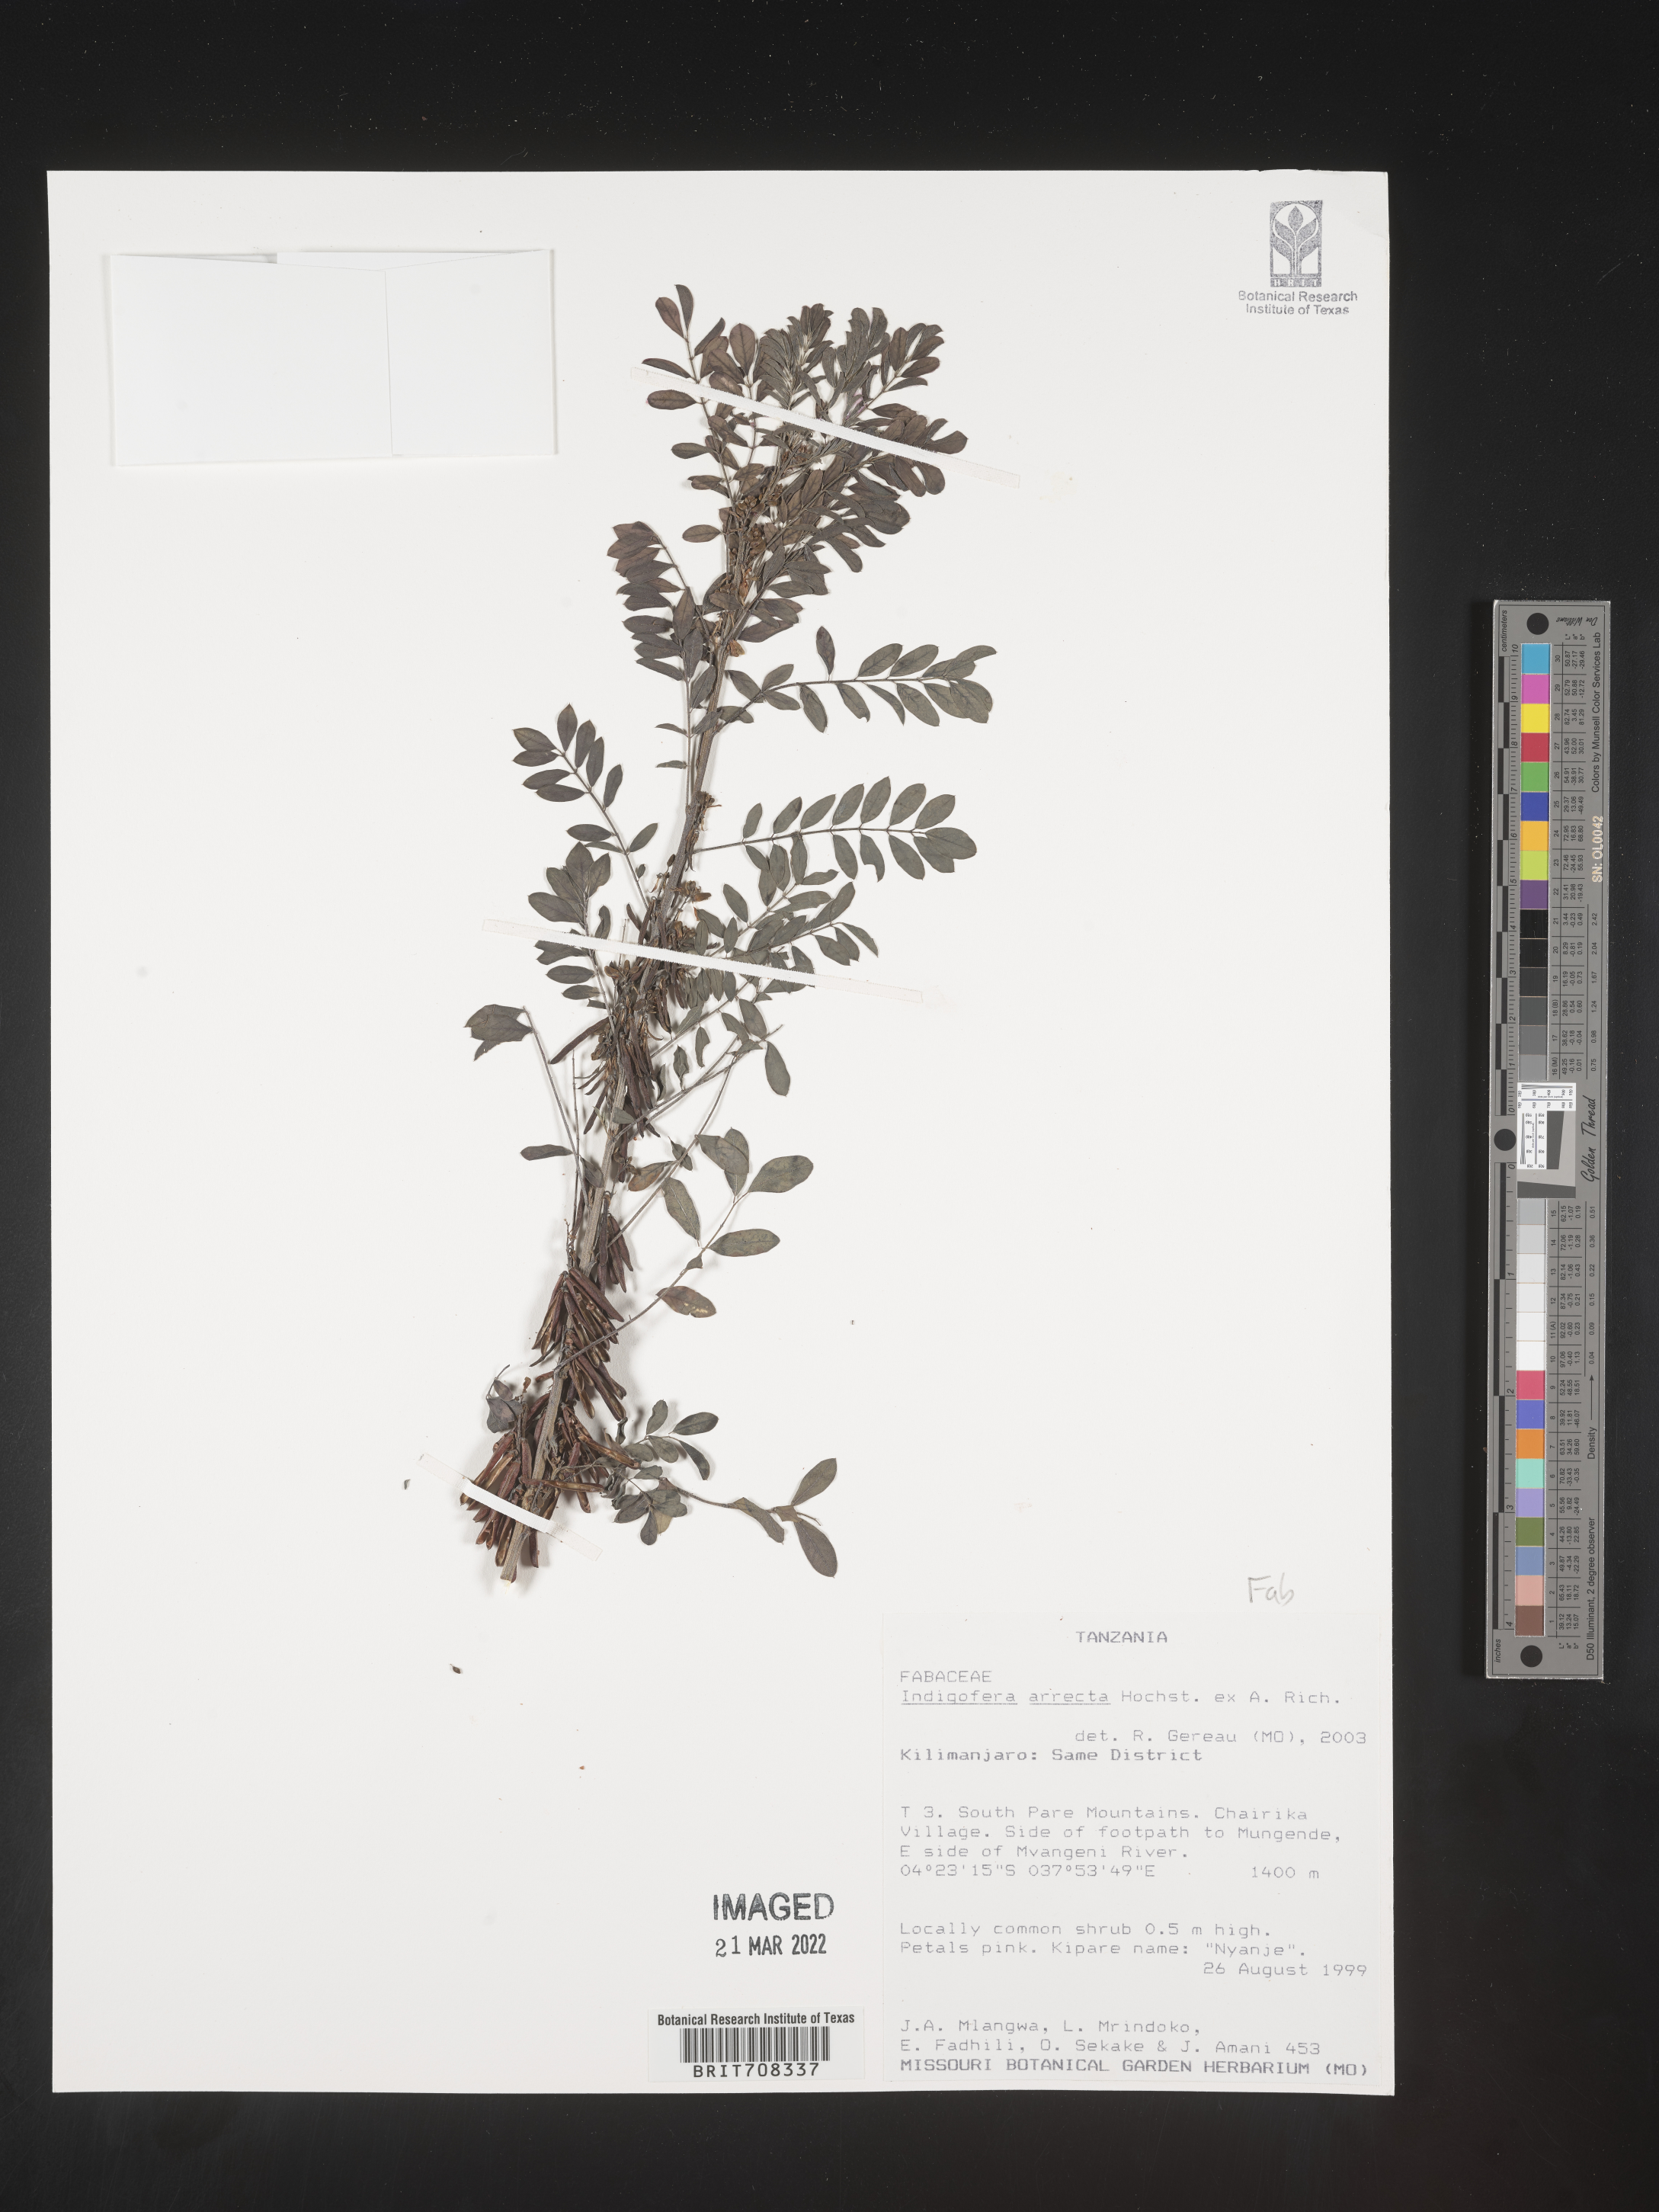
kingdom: Plantae
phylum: Tracheophyta
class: Magnoliopsida
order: Fabales
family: Fabaceae
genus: Indigofera
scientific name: Indigofera
